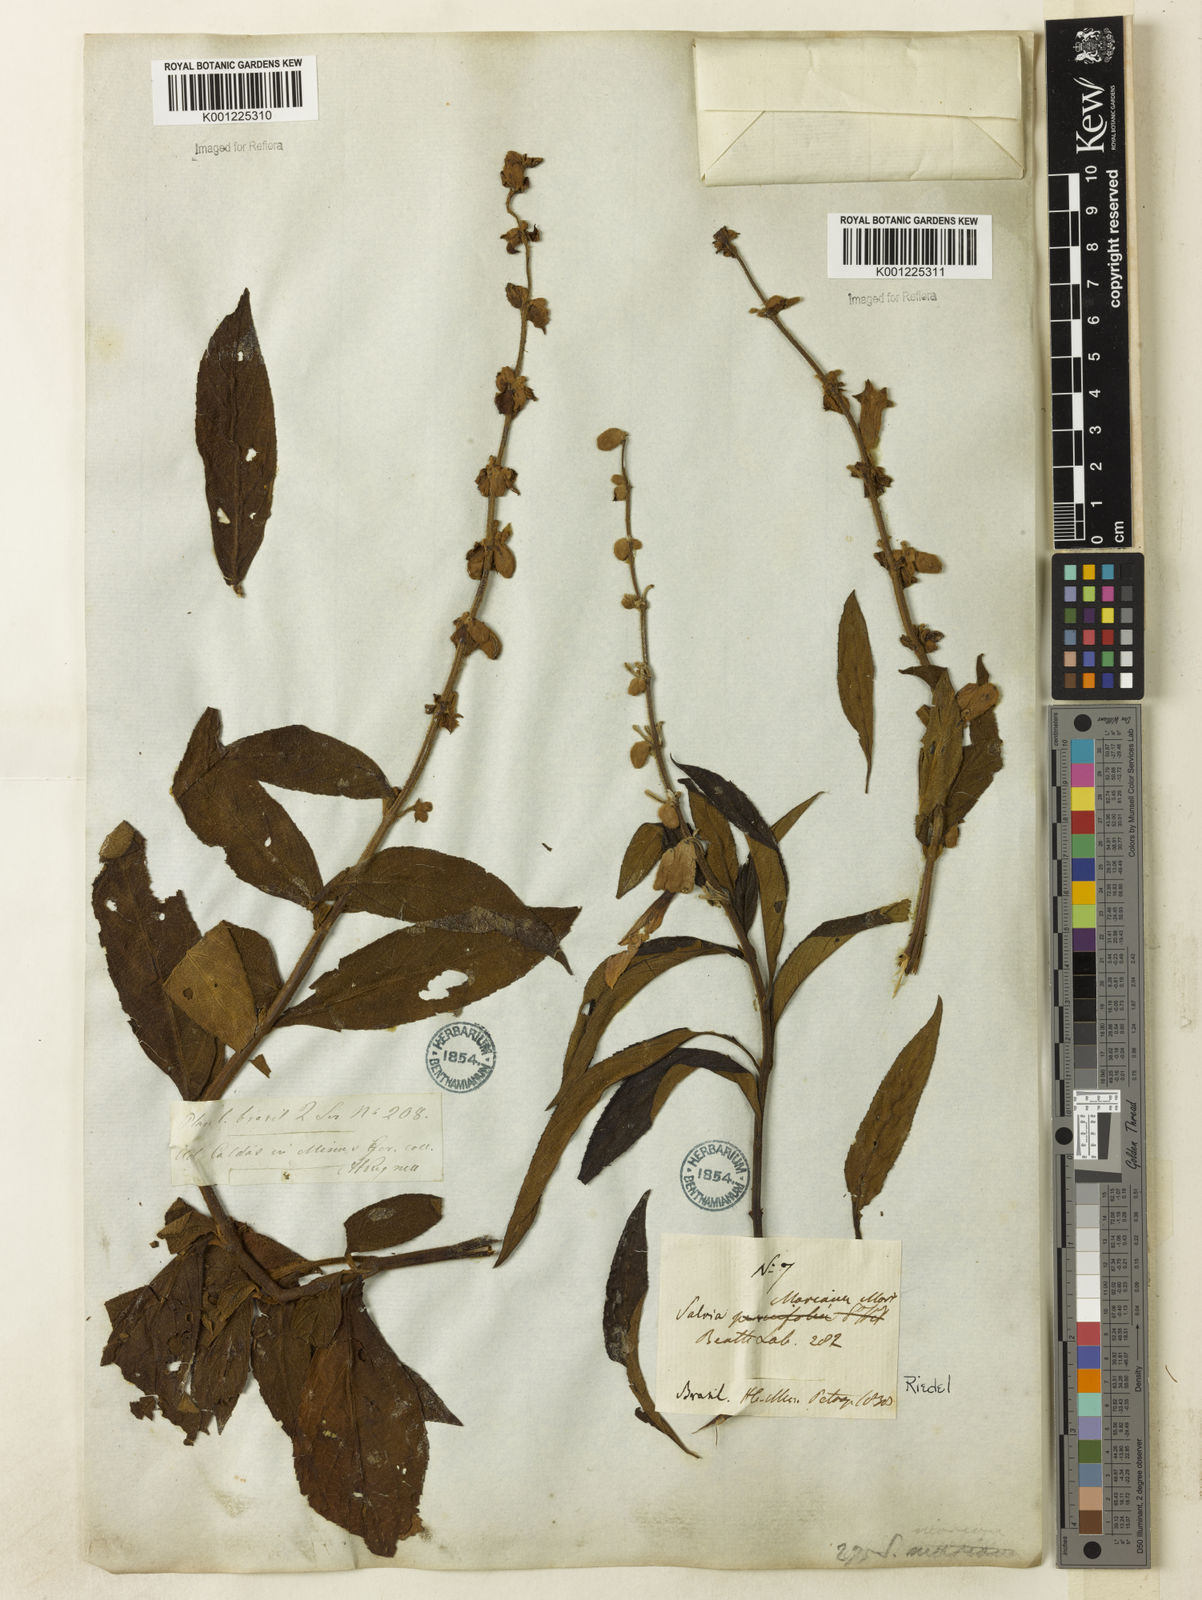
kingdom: Plantae
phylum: Tracheophyta
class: Magnoliopsida
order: Lamiales
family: Lamiaceae
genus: Salvia
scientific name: Salvia macrocalyx
